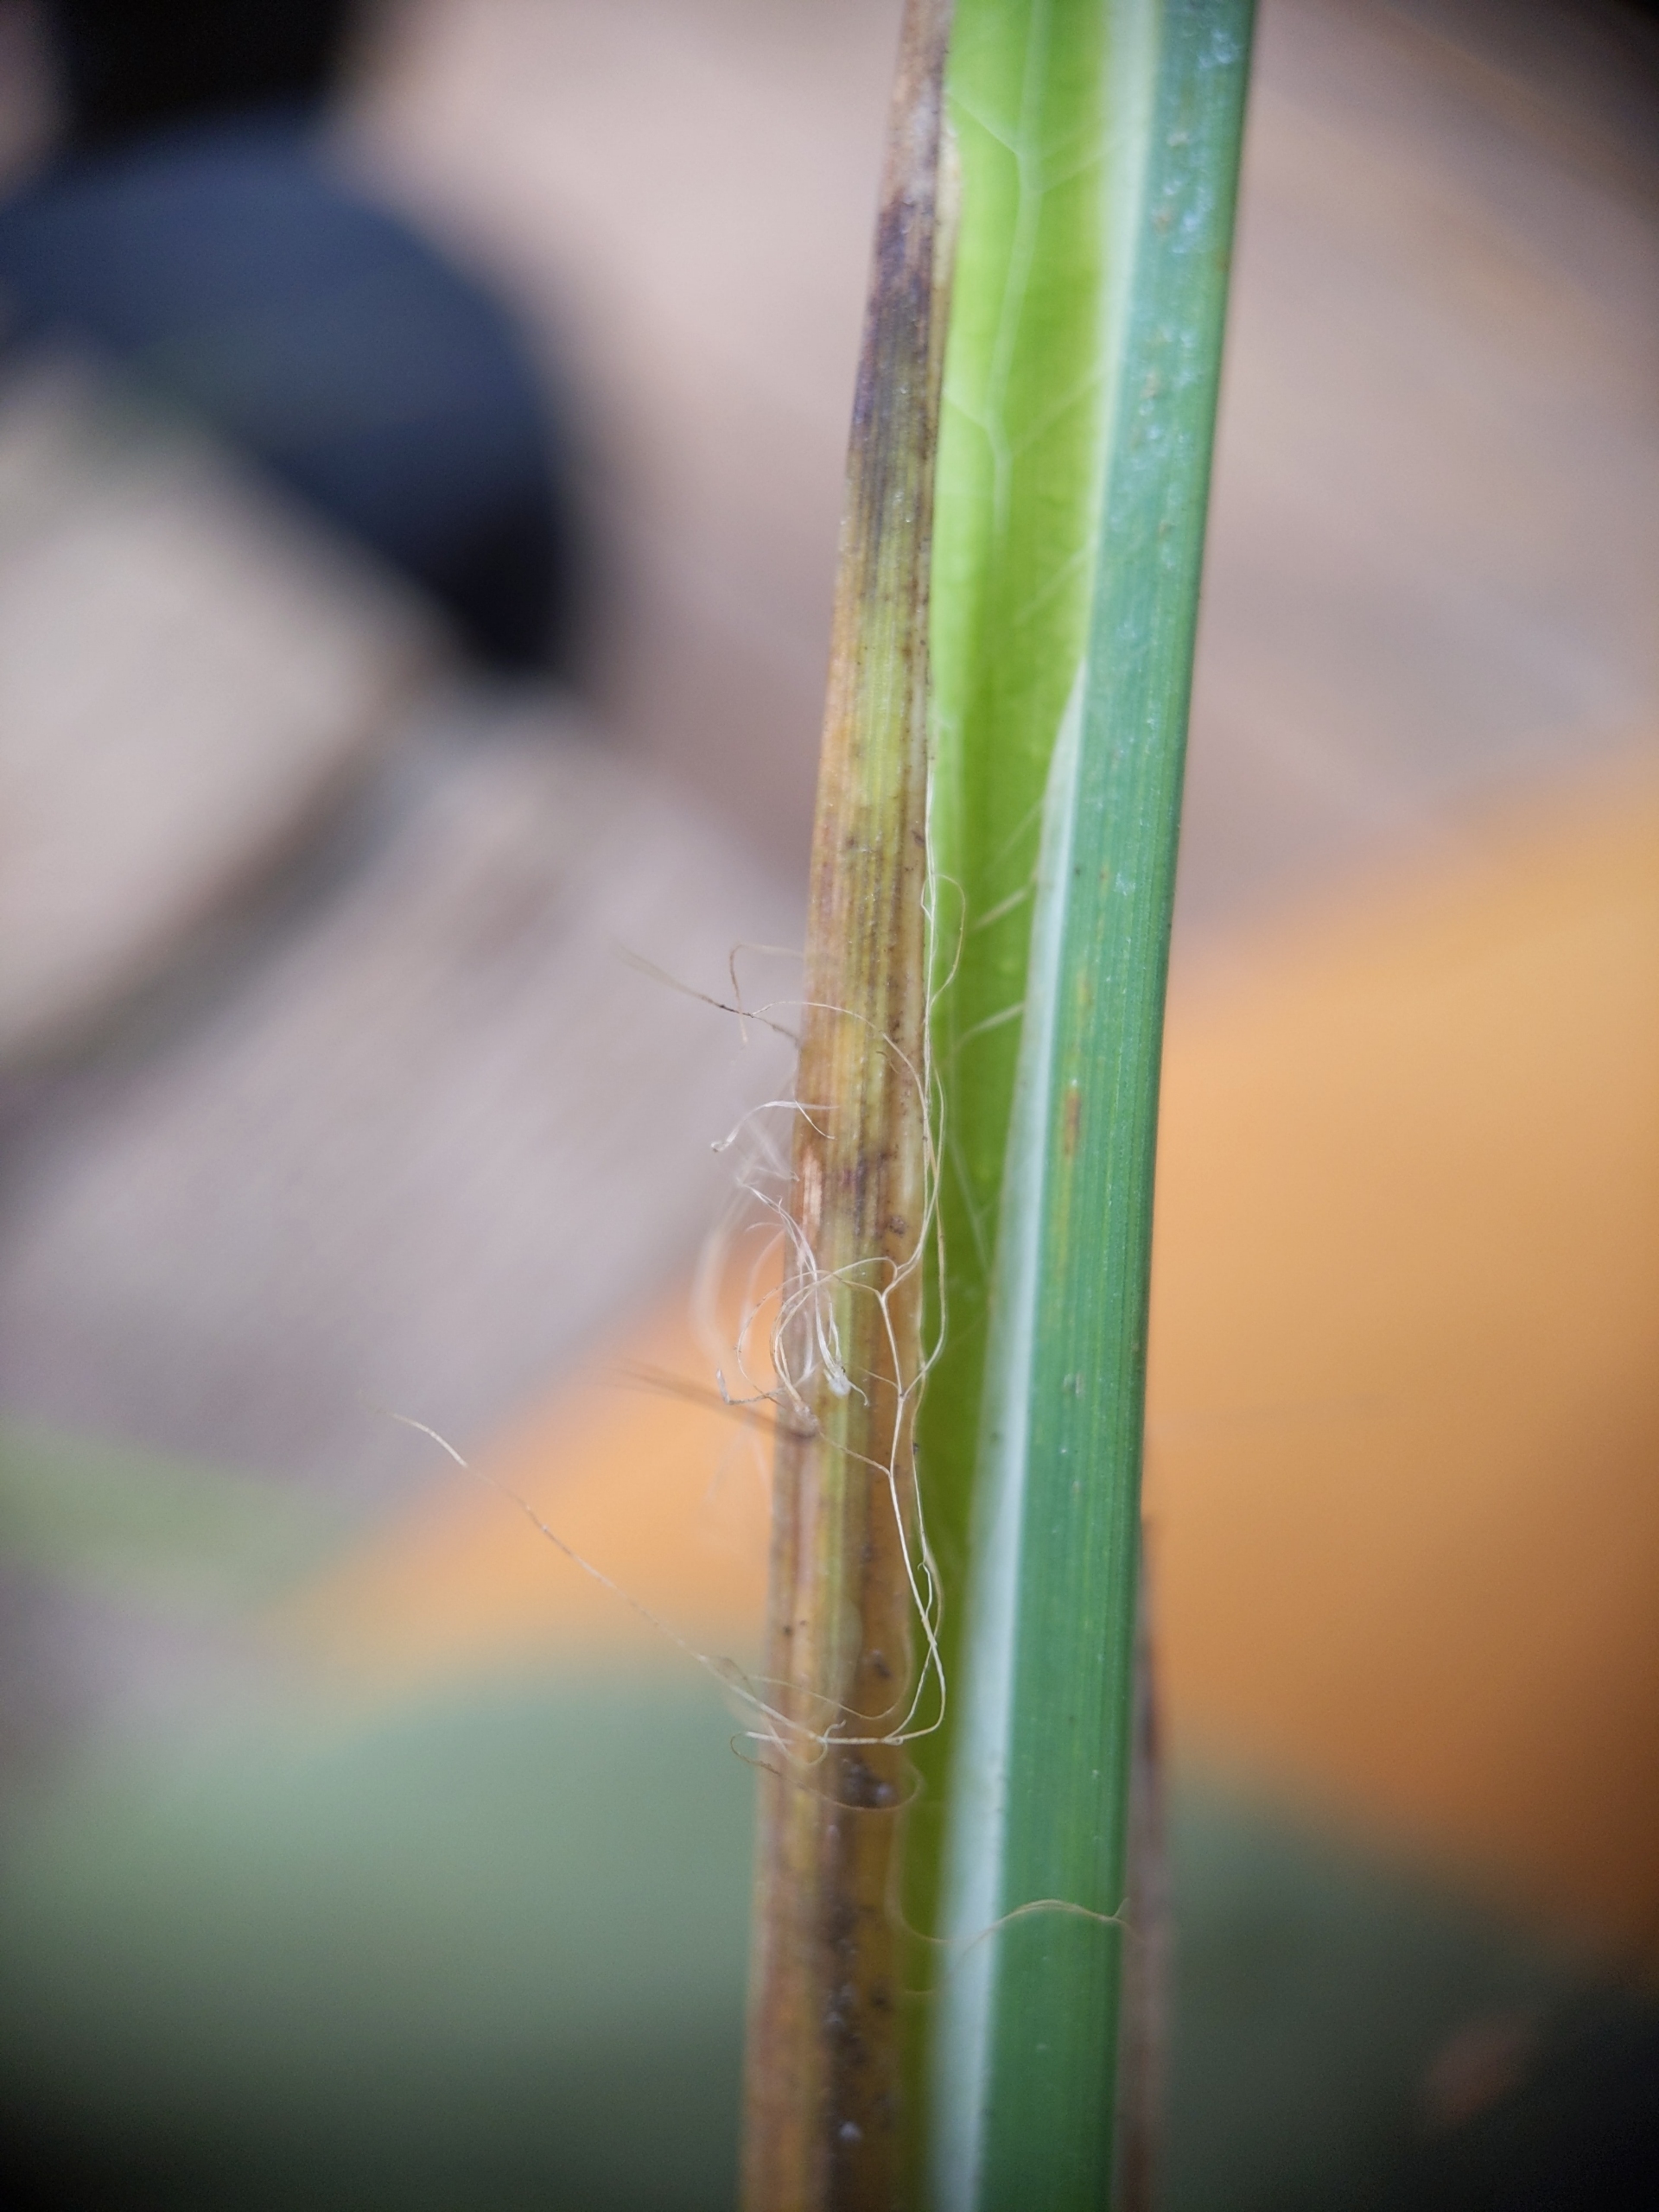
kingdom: Plantae
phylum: Tracheophyta
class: Liliopsida
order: Poales
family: Cyperaceae
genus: Carex
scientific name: Carex elata
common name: Stiv star
